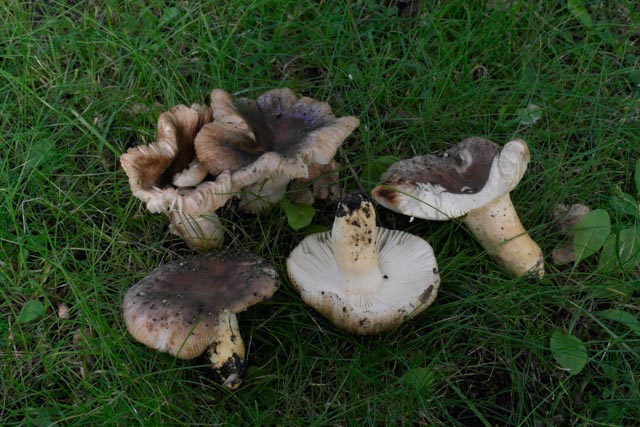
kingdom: Fungi
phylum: Basidiomycota
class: Agaricomycetes
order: Russulales
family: Russulaceae
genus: Russula
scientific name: Russula insignis
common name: gulfodet kam-skørhat
